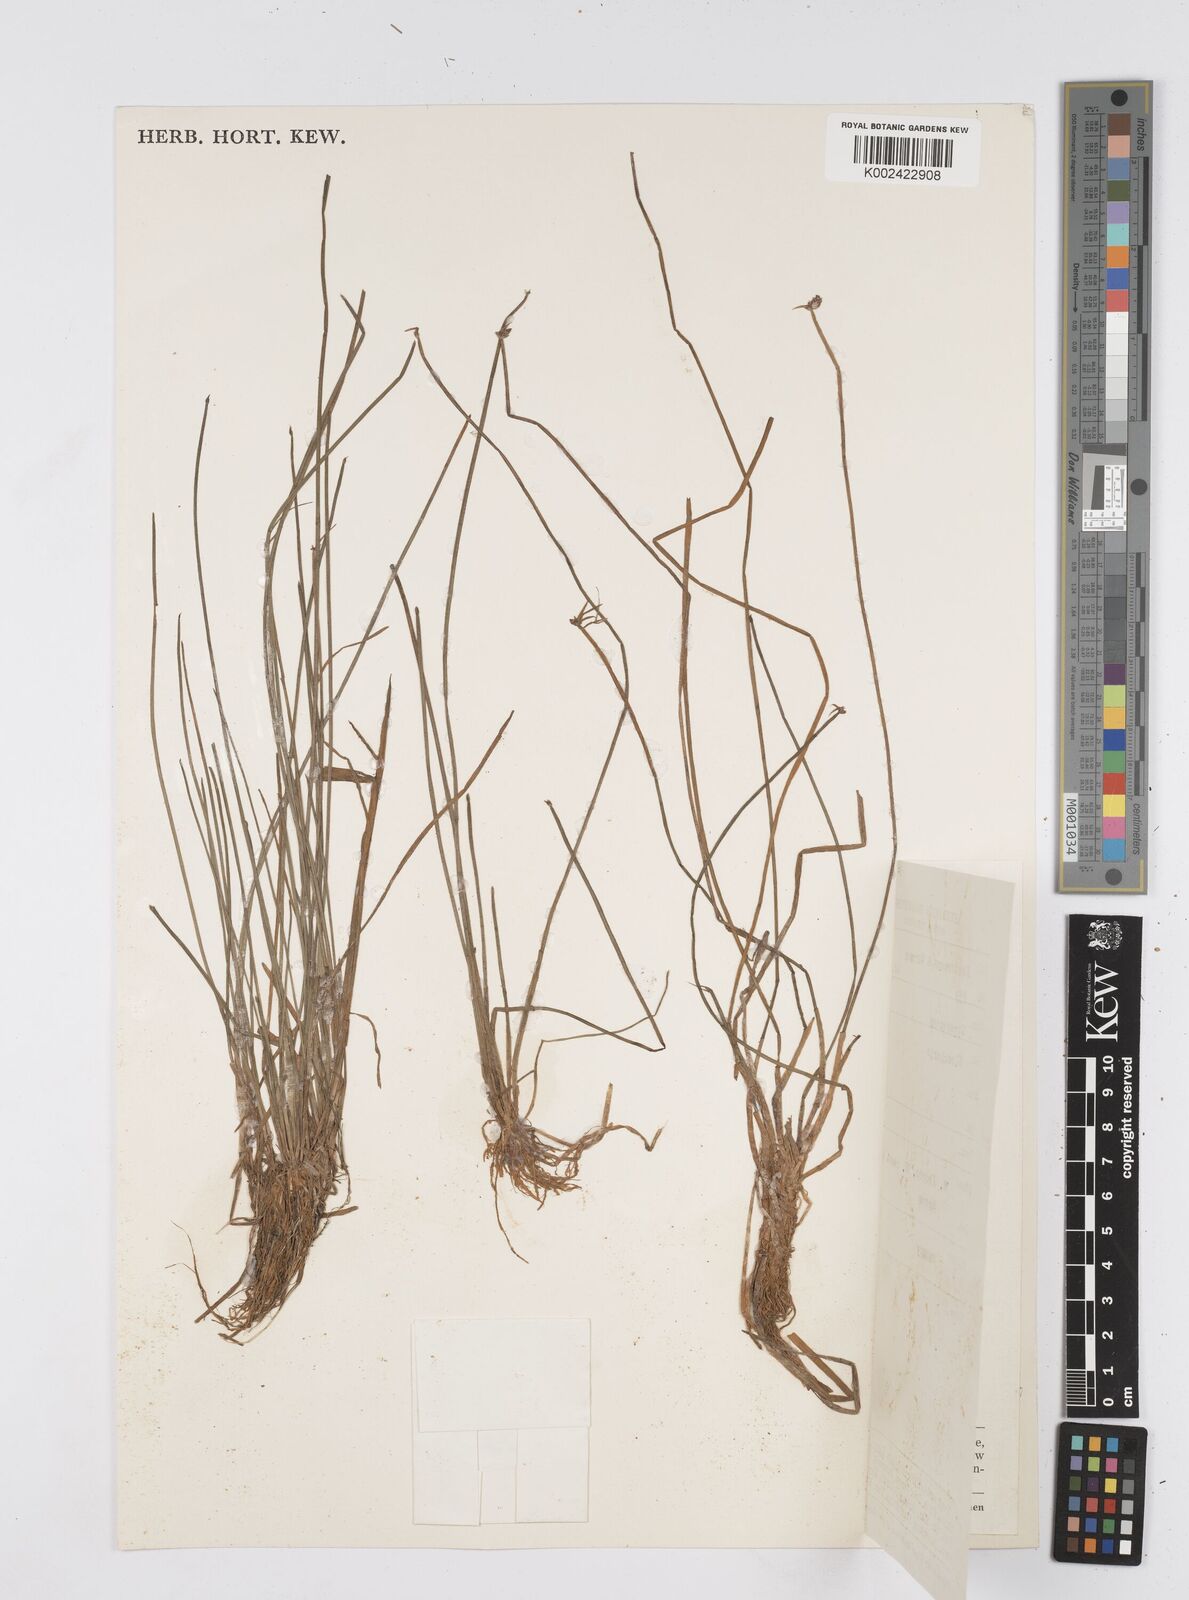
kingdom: Plantae
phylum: Tracheophyta
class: Liliopsida
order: Poales
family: Cyperaceae
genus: Eleocharis
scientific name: Eleocharis
